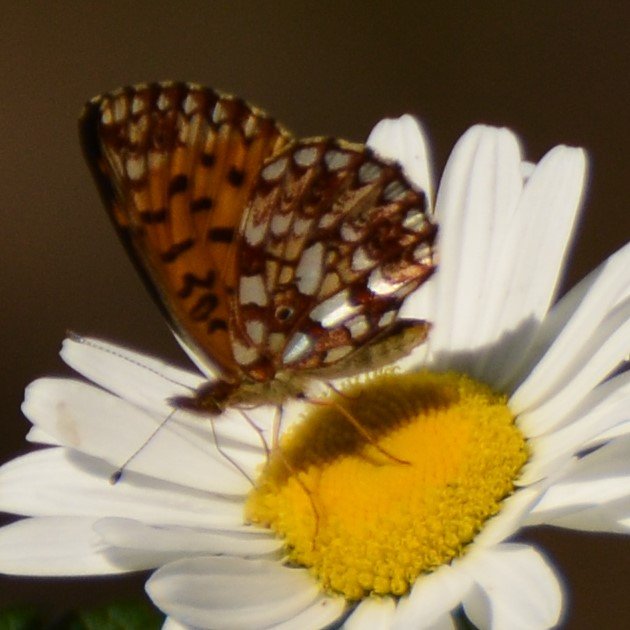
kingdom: Animalia
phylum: Arthropoda
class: Insecta
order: Lepidoptera
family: Nymphalidae
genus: Boloria
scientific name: Boloria selene
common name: Silver-bordered Fritillary
